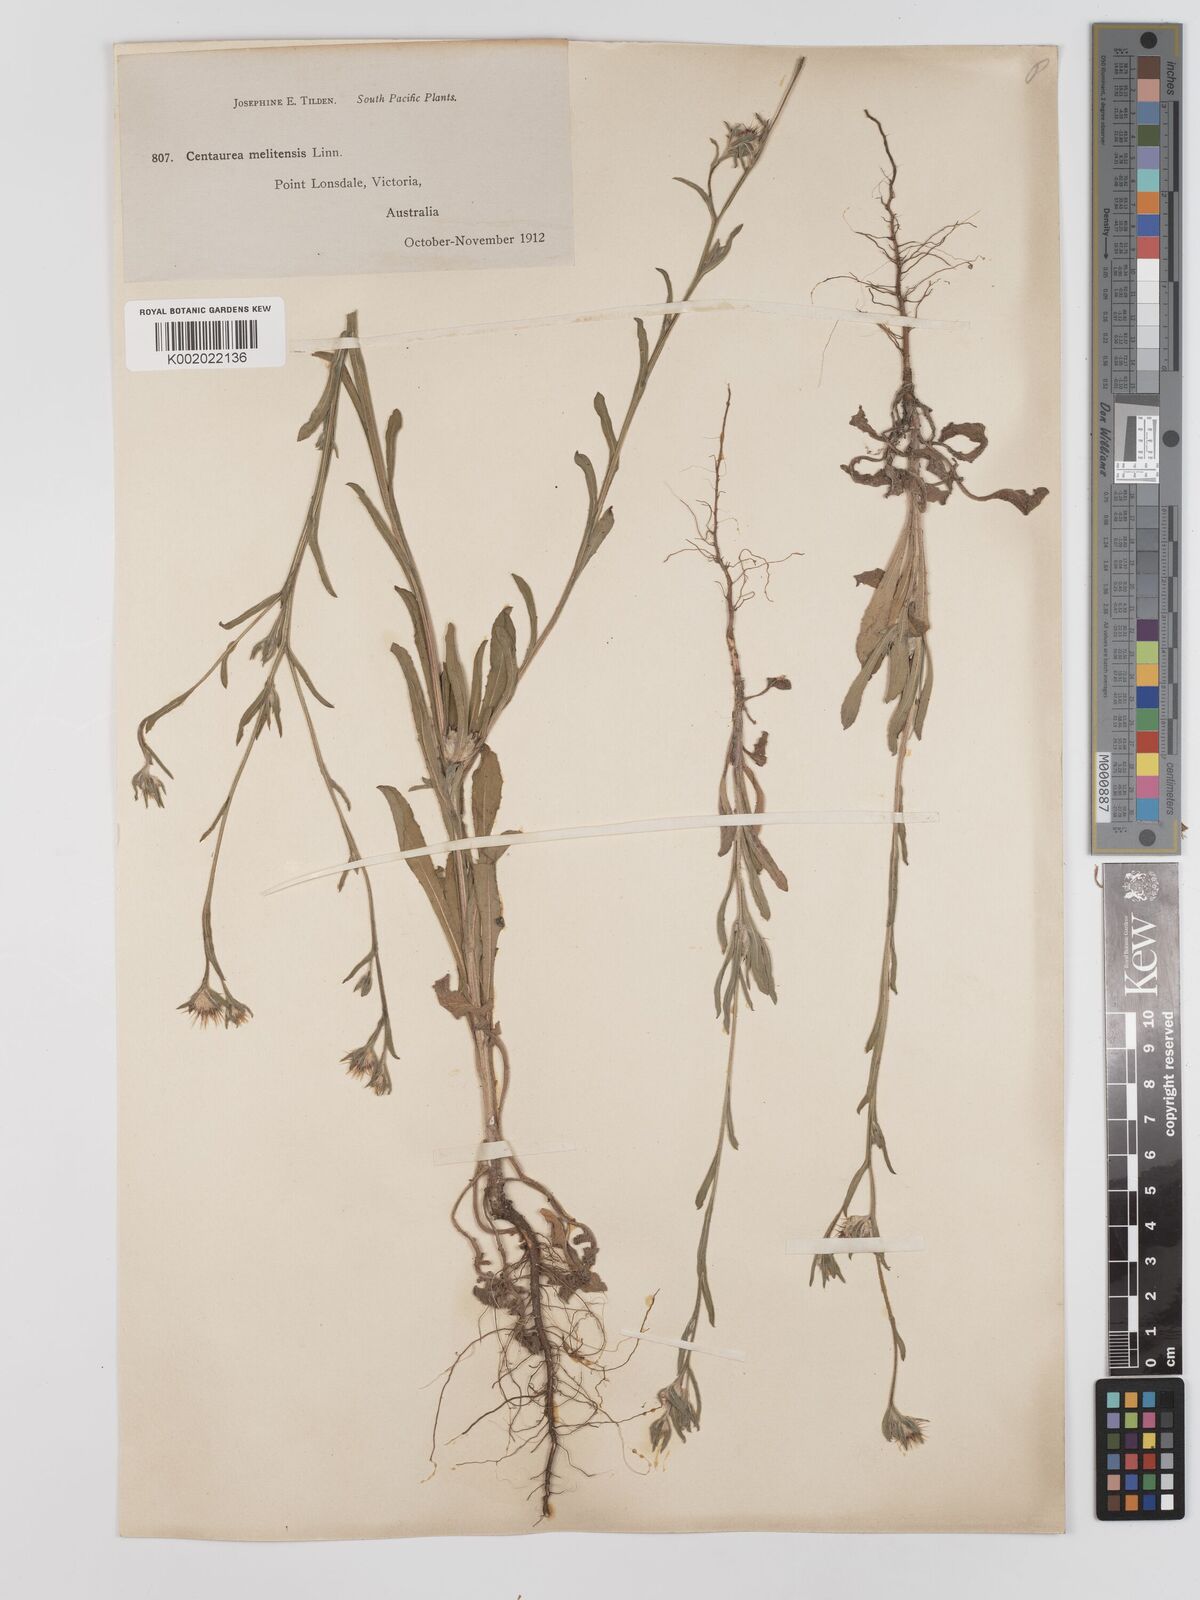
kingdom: Plantae
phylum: Tracheophyta
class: Magnoliopsida
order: Asterales
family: Asteraceae
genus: Centaurea
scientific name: Centaurea melitensis
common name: Maltese star-thistle
